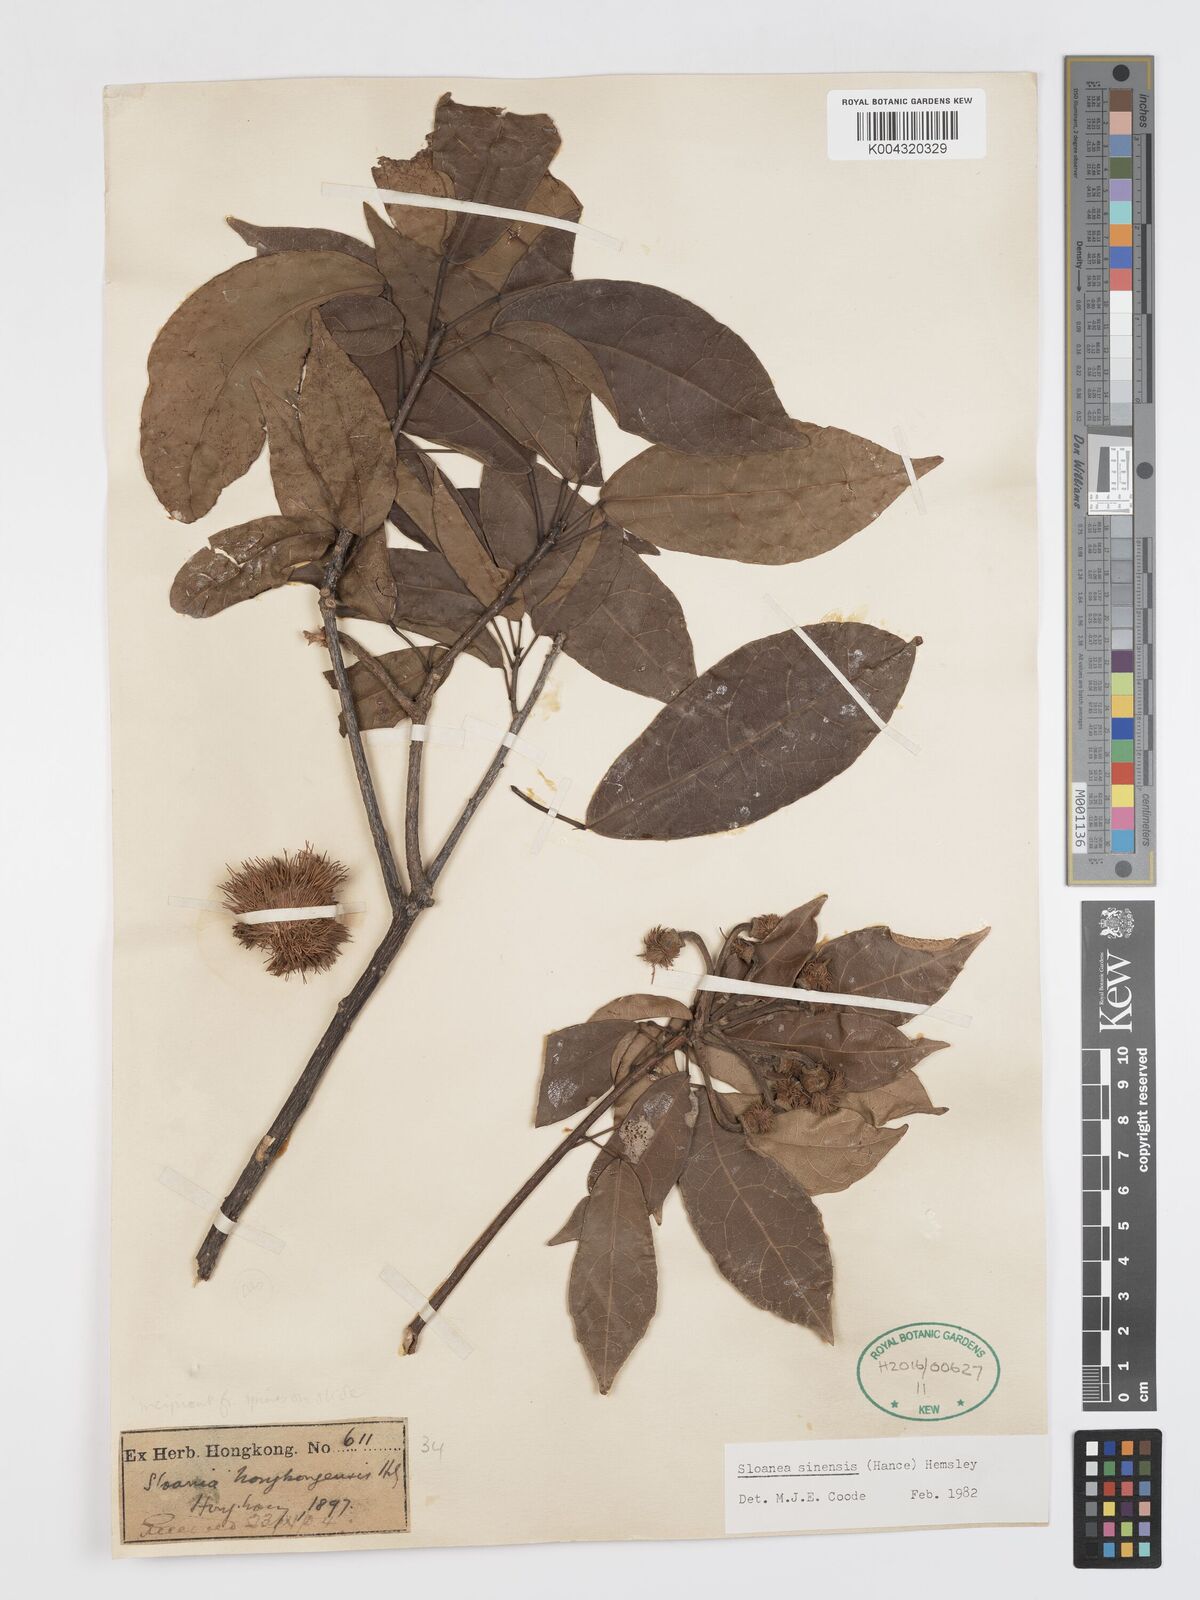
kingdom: Plantae
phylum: Tracheophyta
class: Magnoliopsida
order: Oxalidales
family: Elaeocarpaceae
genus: Sloanea
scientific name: Sloanea sinensis
